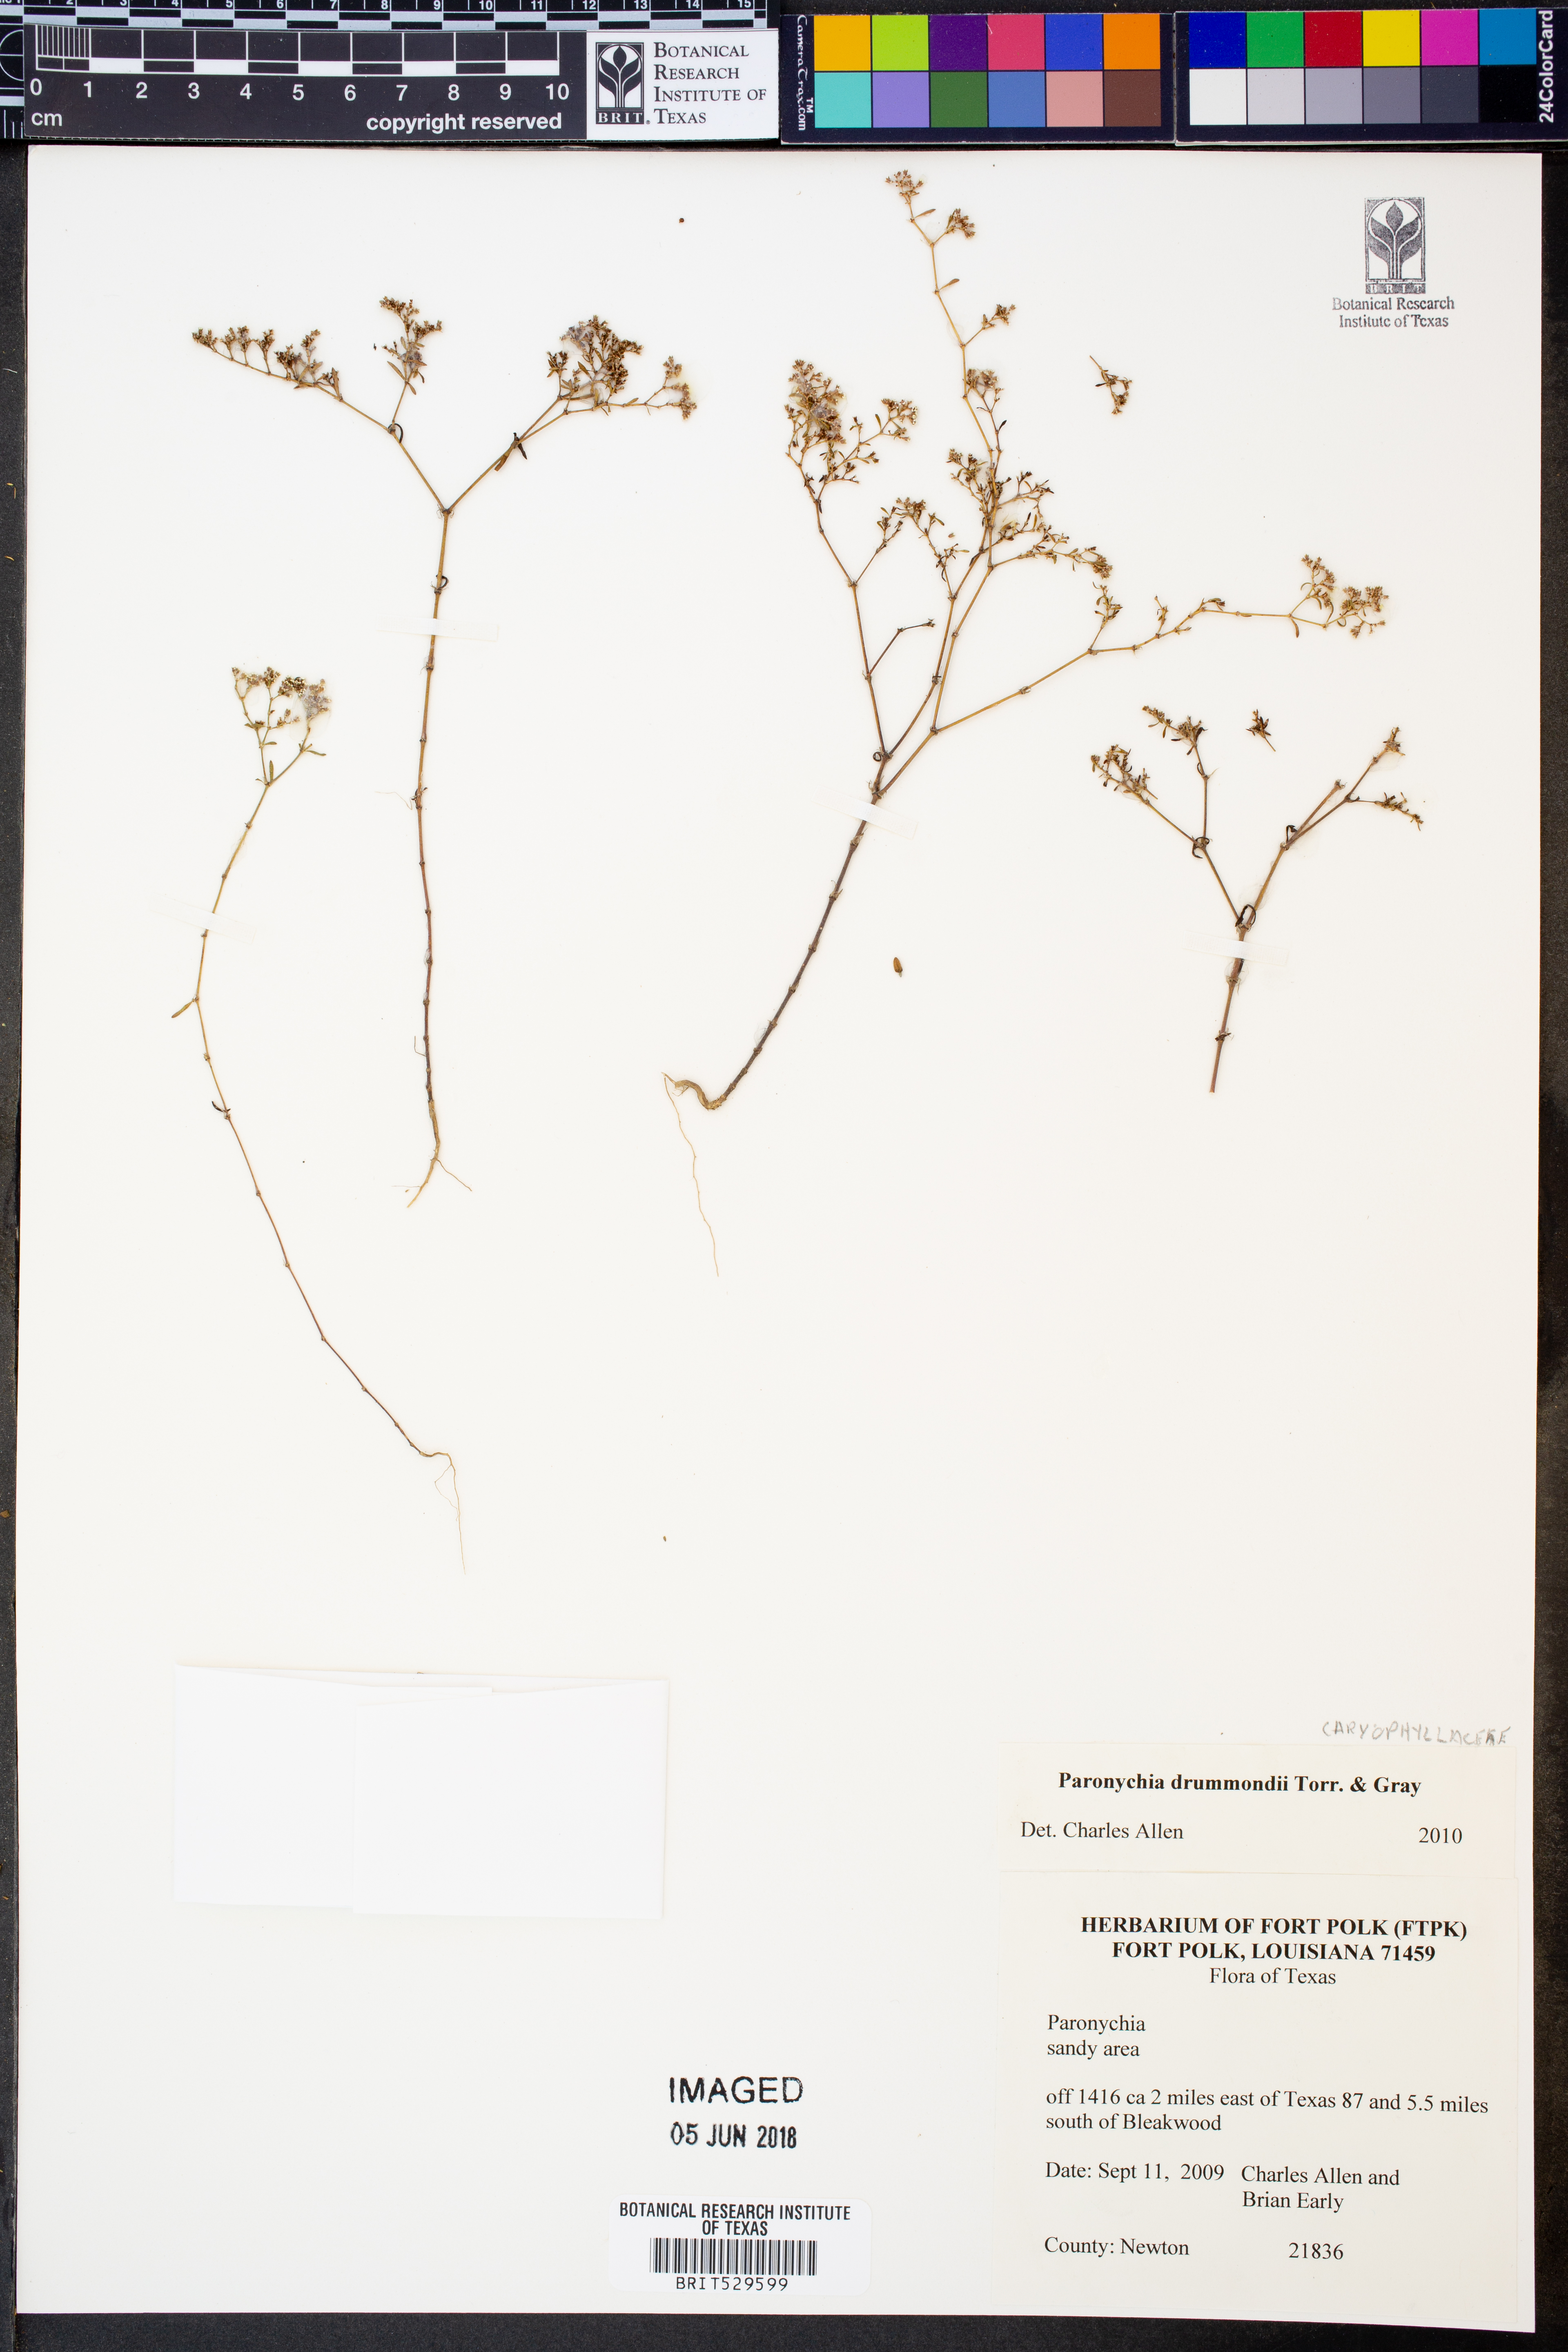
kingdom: Plantae
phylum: Tracheophyta
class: Magnoliopsida
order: Caryophyllales
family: Caryophyllaceae
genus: Paronychia
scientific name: Paronychia drummondii
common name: Drummond's nailwort
